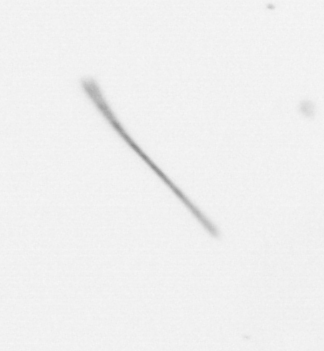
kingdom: Chromista
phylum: Ochrophyta
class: Bacillariophyceae
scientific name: Bacillariophyceae
